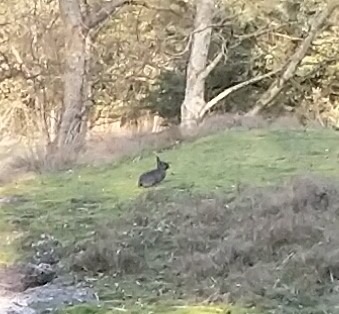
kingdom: Animalia
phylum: Chordata
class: Mammalia
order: Lagomorpha
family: Leporidae
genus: Oryctolagus
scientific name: Oryctolagus cuniculus
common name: Vildkanin
